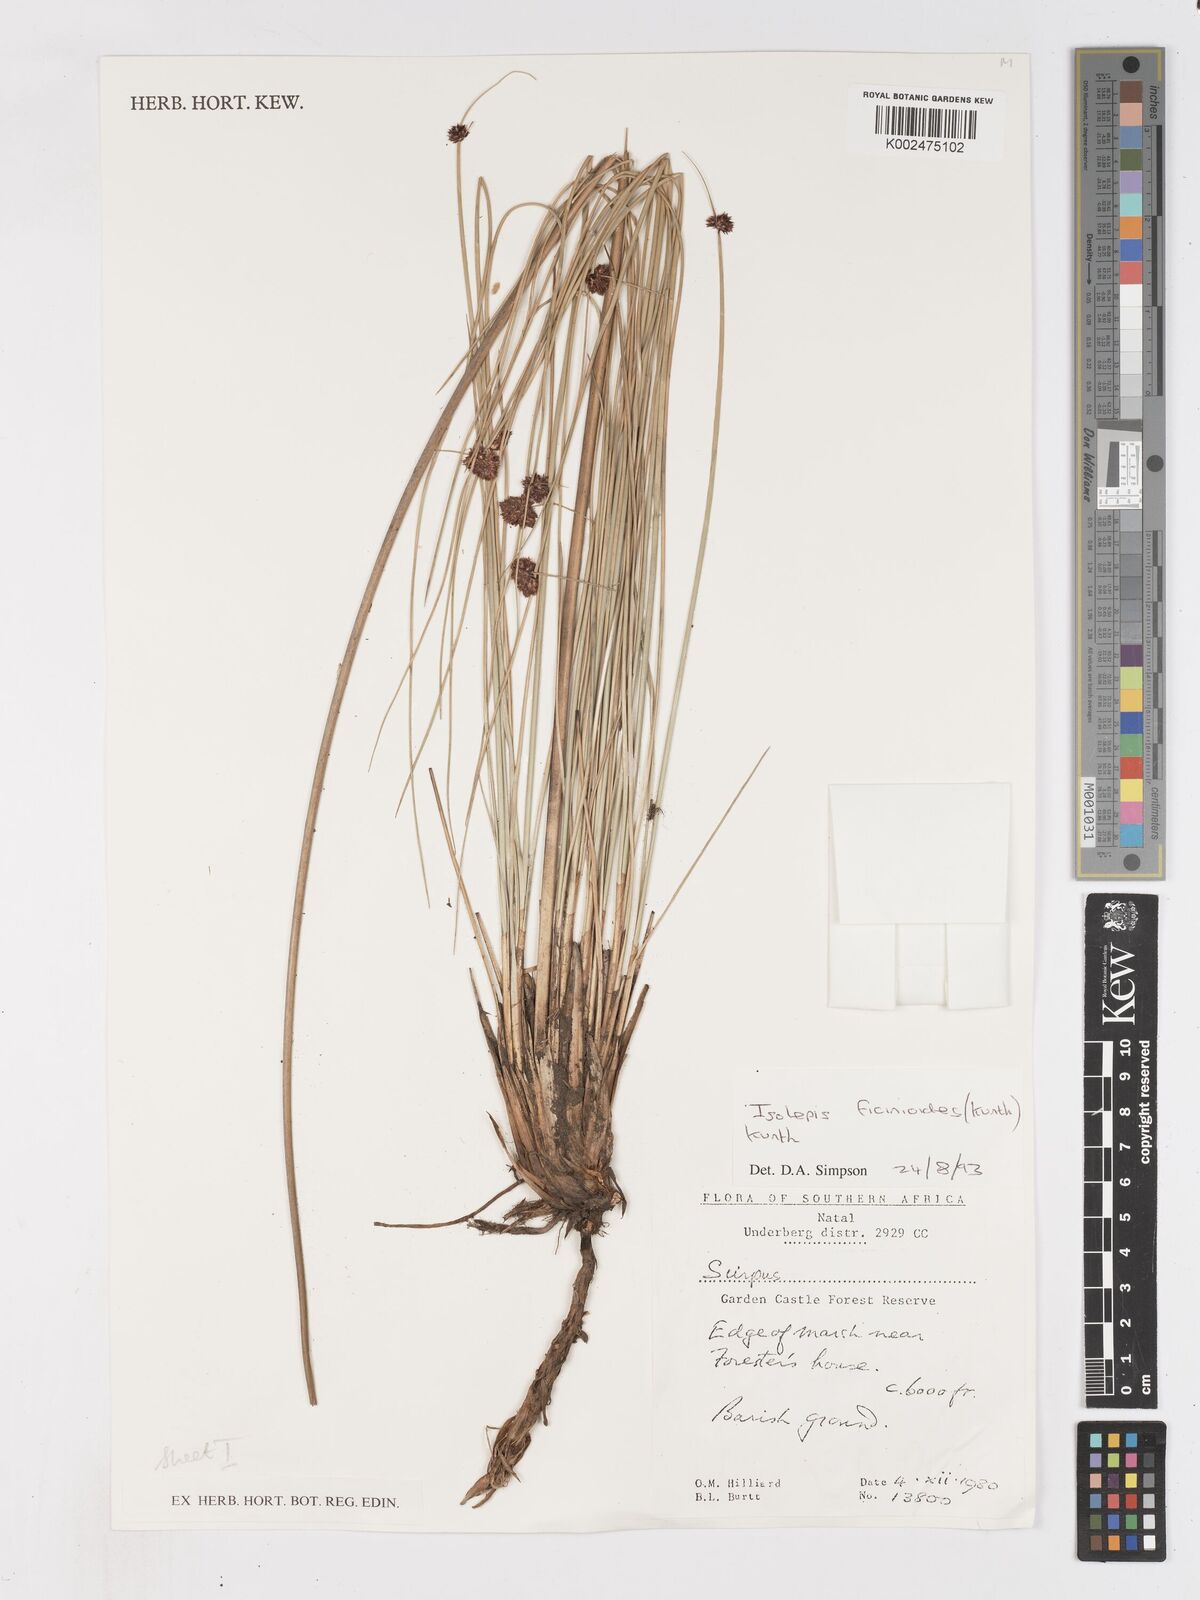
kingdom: Plantae
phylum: Tracheophyta
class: Liliopsida
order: Poales
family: Cyperaceae
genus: Ficinia
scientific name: Ficinia filiformis
